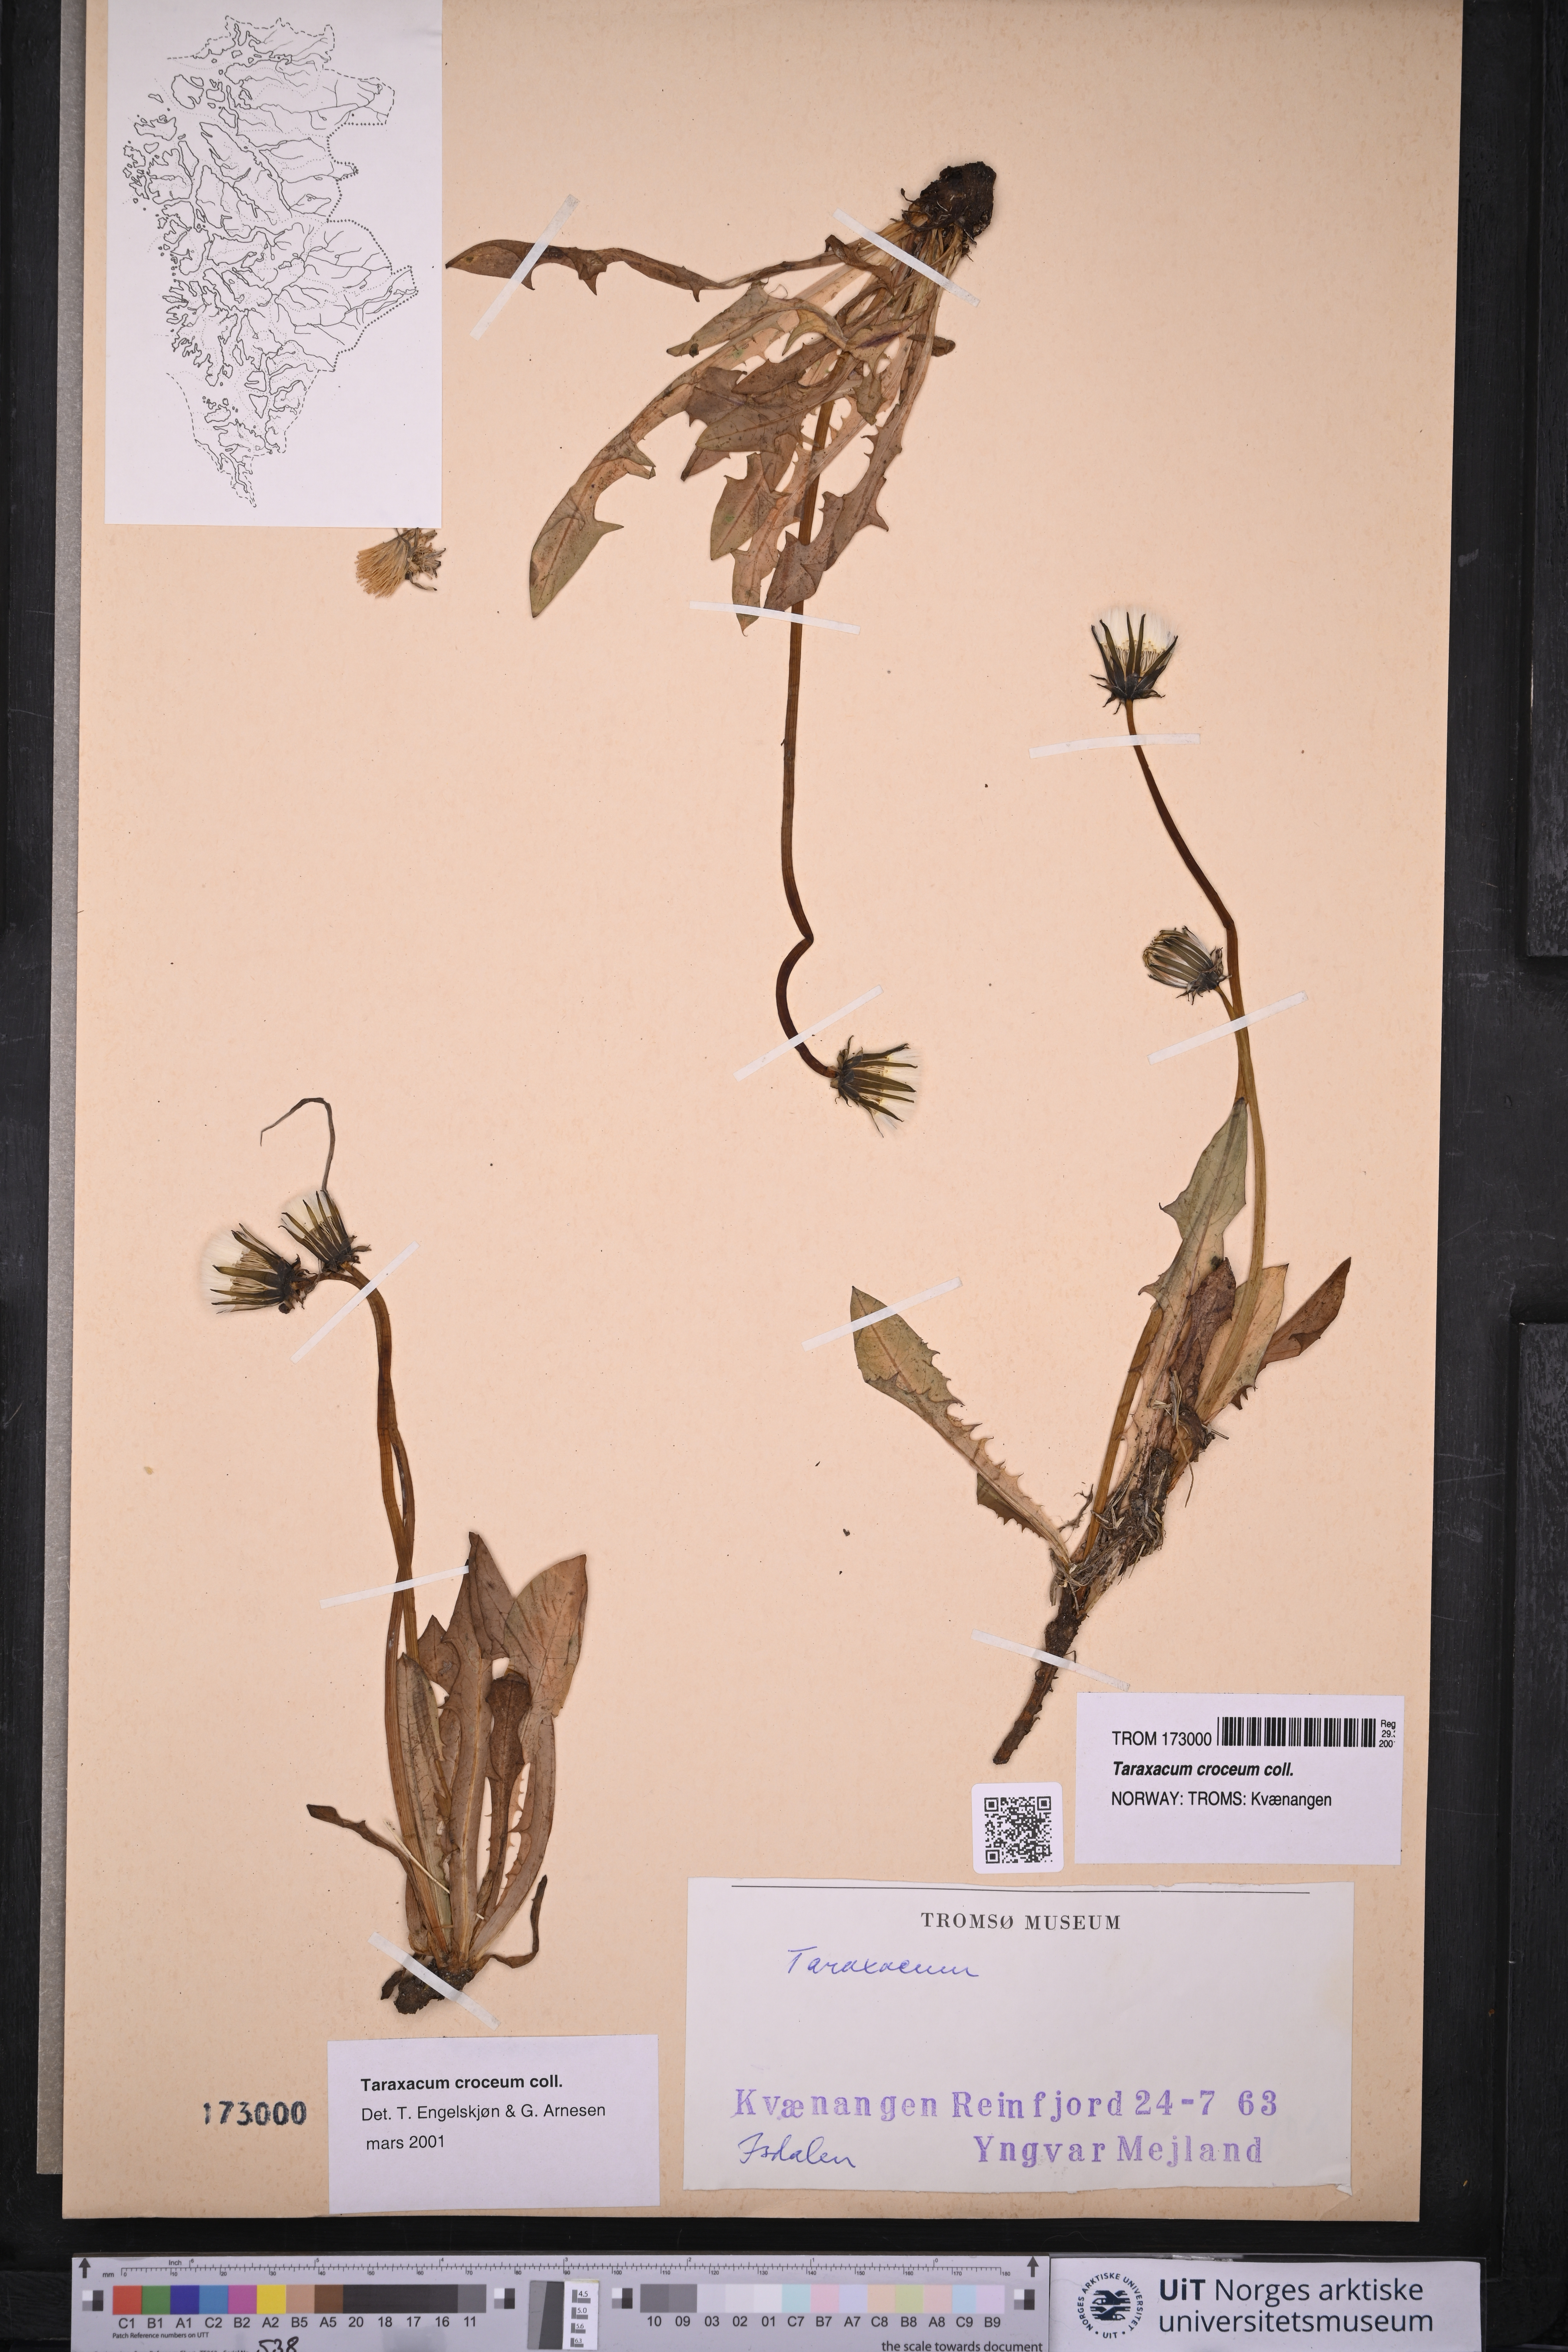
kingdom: Plantae
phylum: Tracheophyta
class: Magnoliopsida
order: Asterales
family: Asteraceae
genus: Taraxacum
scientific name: Taraxacum croceum
